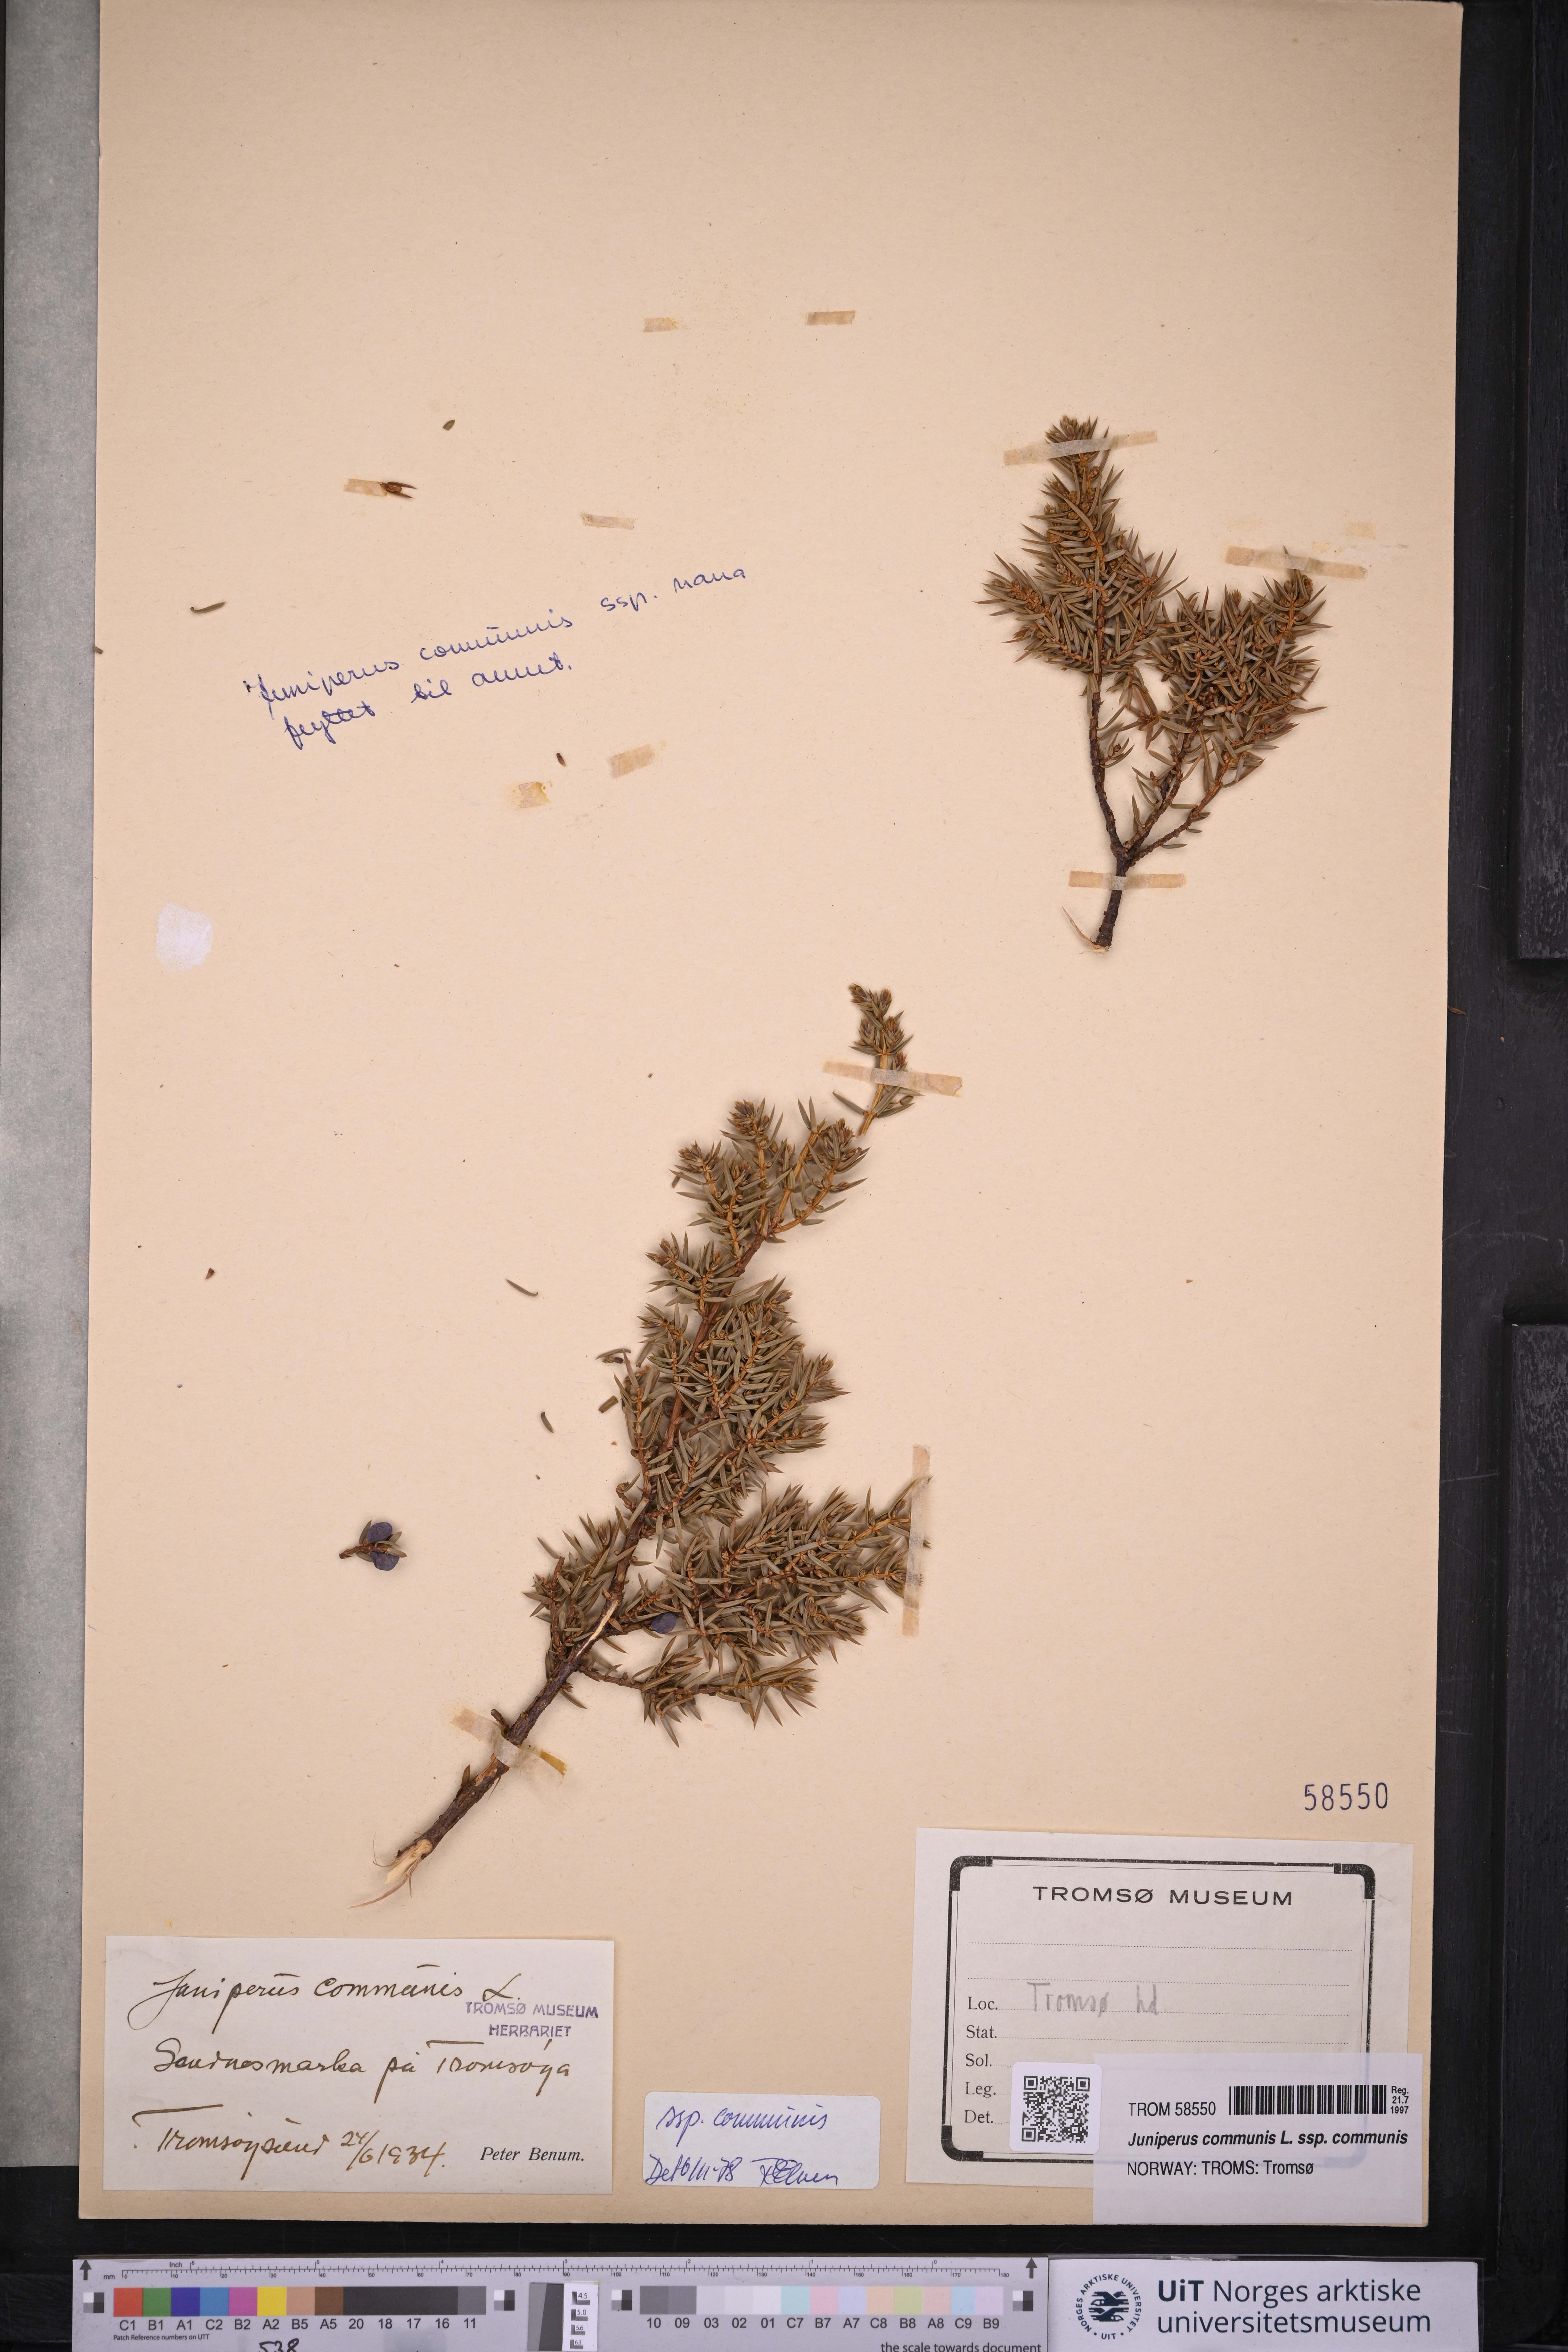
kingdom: Plantae
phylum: Tracheophyta
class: Pinopsida
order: Pinales
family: Cupressaceae
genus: Juniperus
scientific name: Juniperus communis
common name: Common juniper
